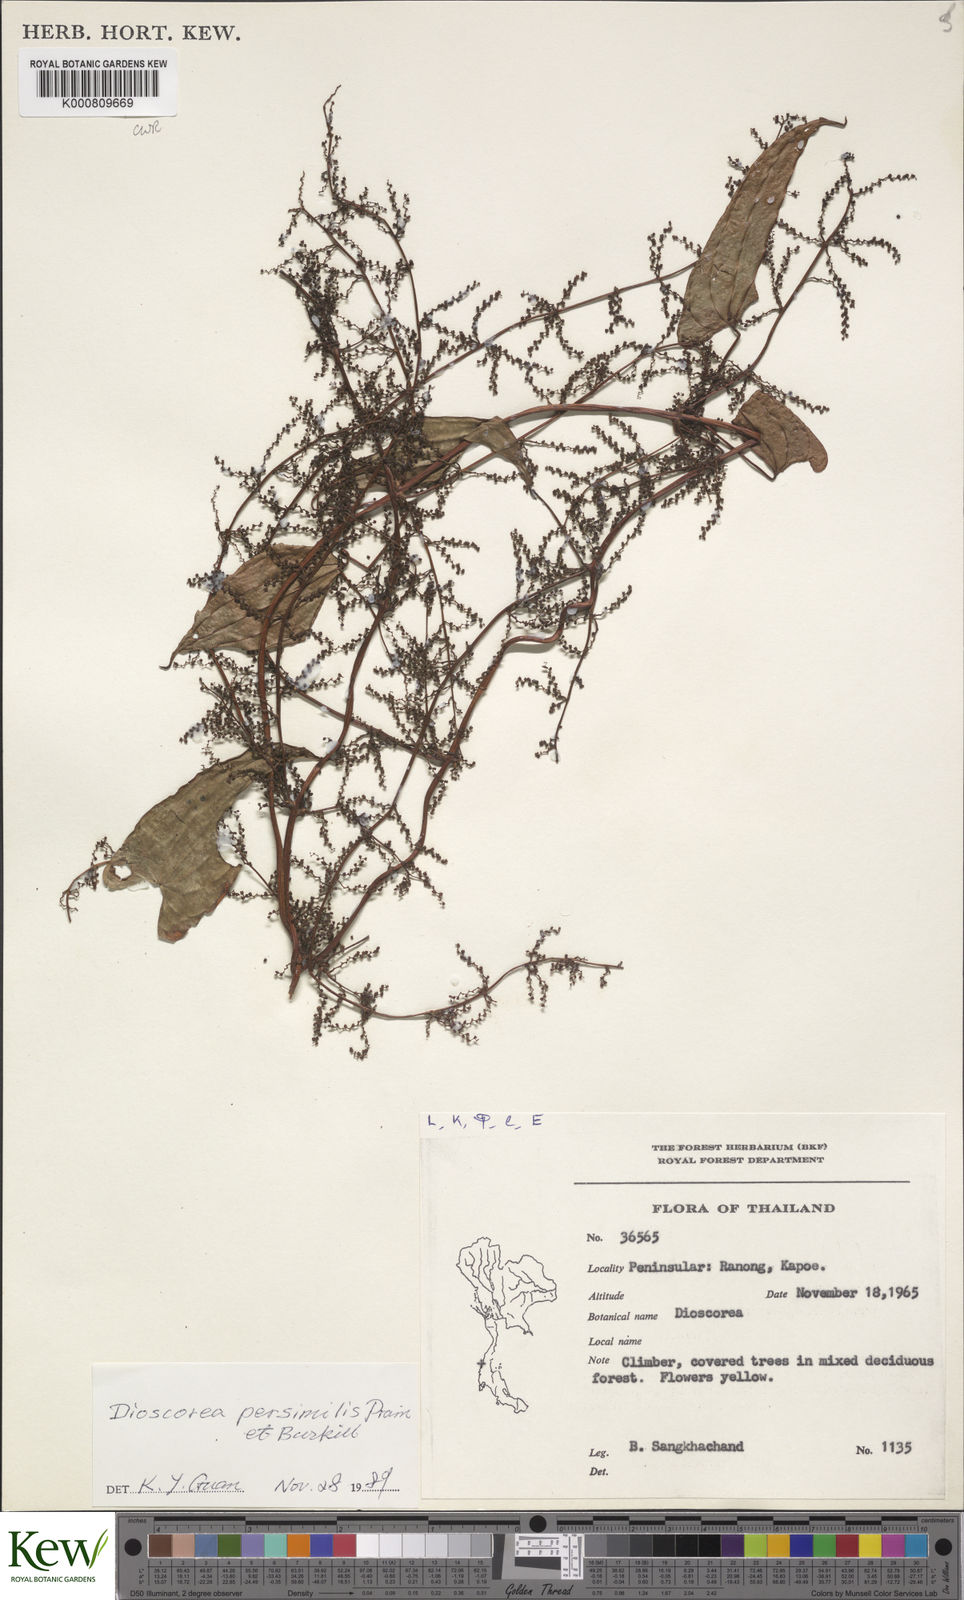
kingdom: Plantae
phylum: Tracheophyta
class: Liliopsida
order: Dioscoreales
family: Dioscoreaceae
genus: Dioscorea
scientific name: Dioscorea hamiltonii
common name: Mountain yam
